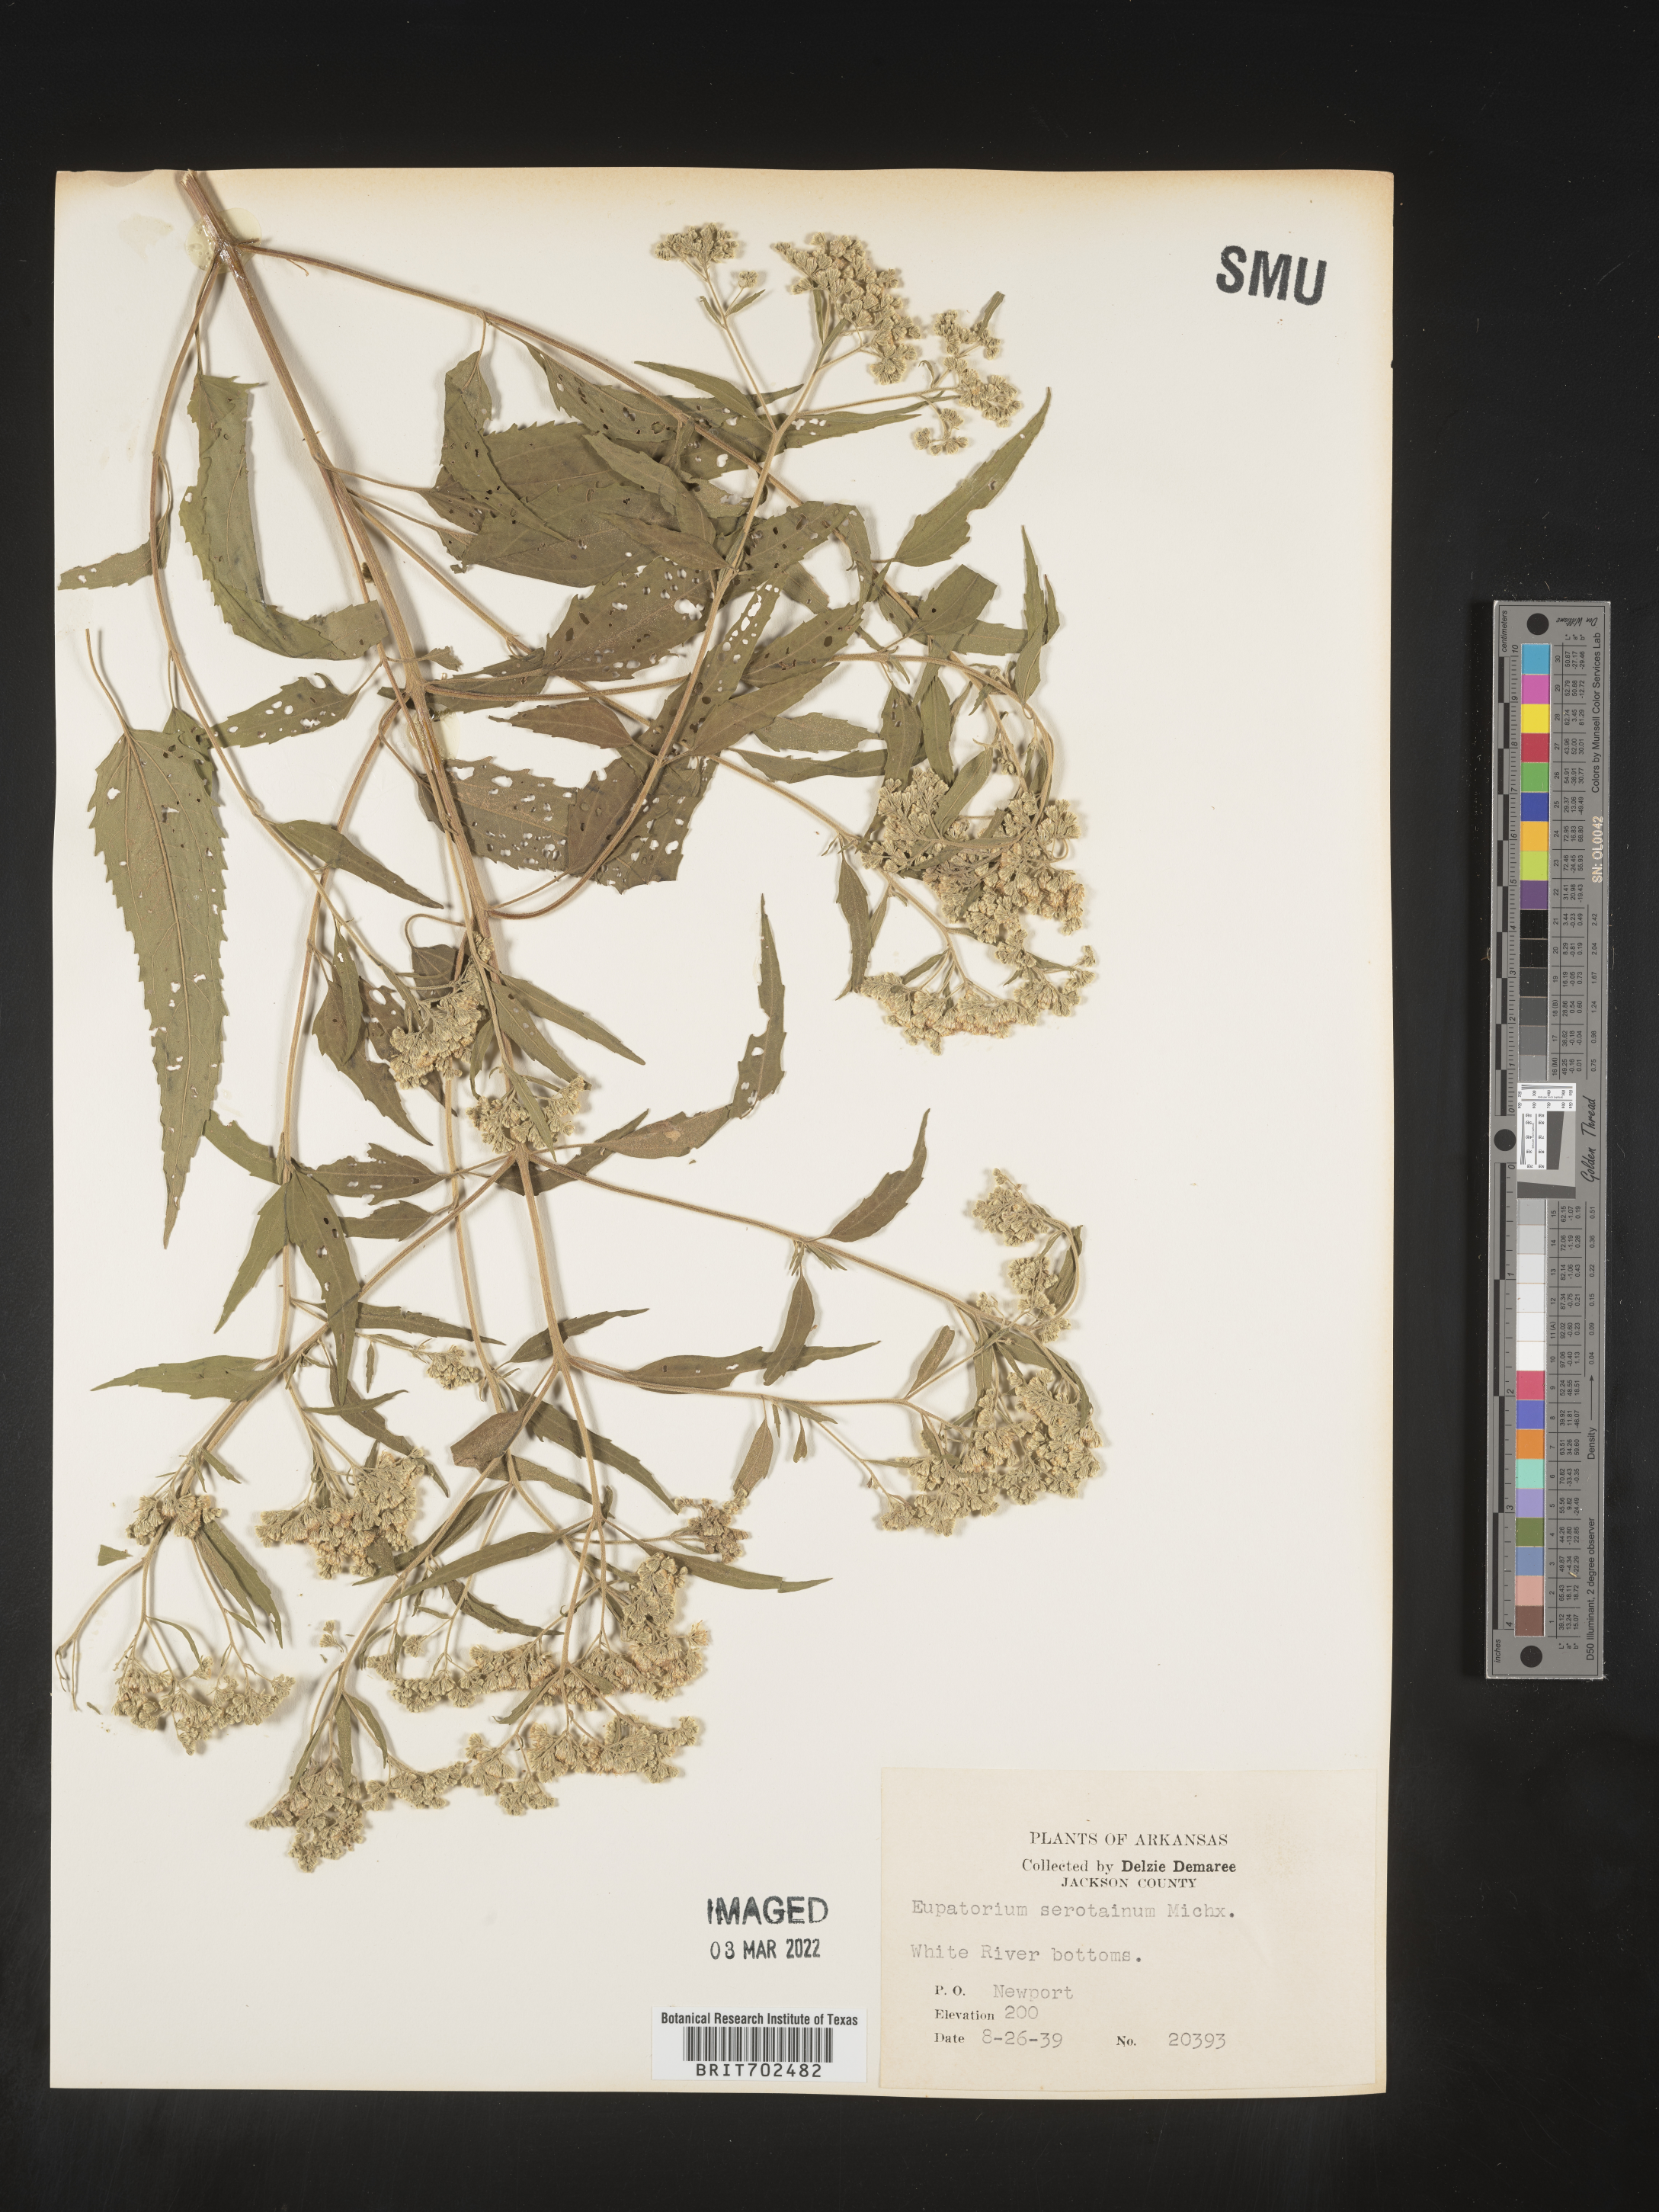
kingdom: Plantae
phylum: Tracheophyta
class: Magnoliopsida
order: Asterales
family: Asteraceae
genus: Eupatorium
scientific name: Eupatorium serotinum
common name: Late boneset
